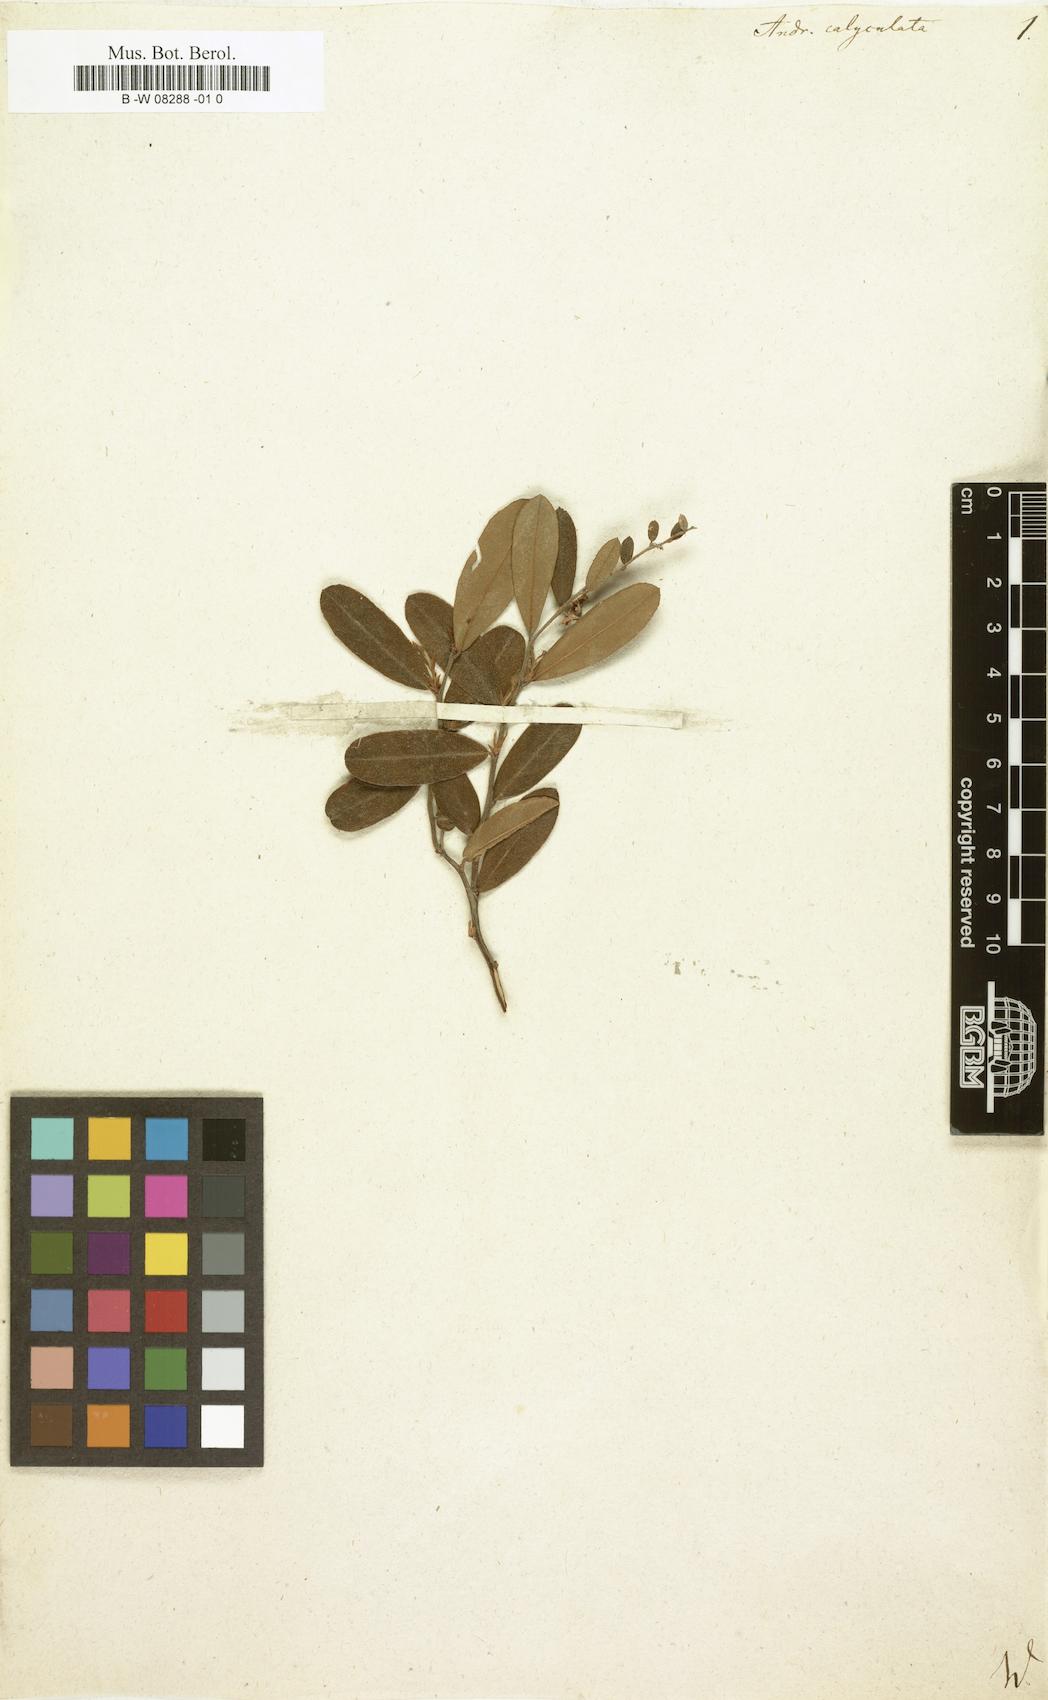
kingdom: Plantae
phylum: Tracheophyta
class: Magnoliopsida
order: Ericales
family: Ericaceae
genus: Chamaedaphne
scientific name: Chamaedaphne calyculata
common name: Leatherleaf
